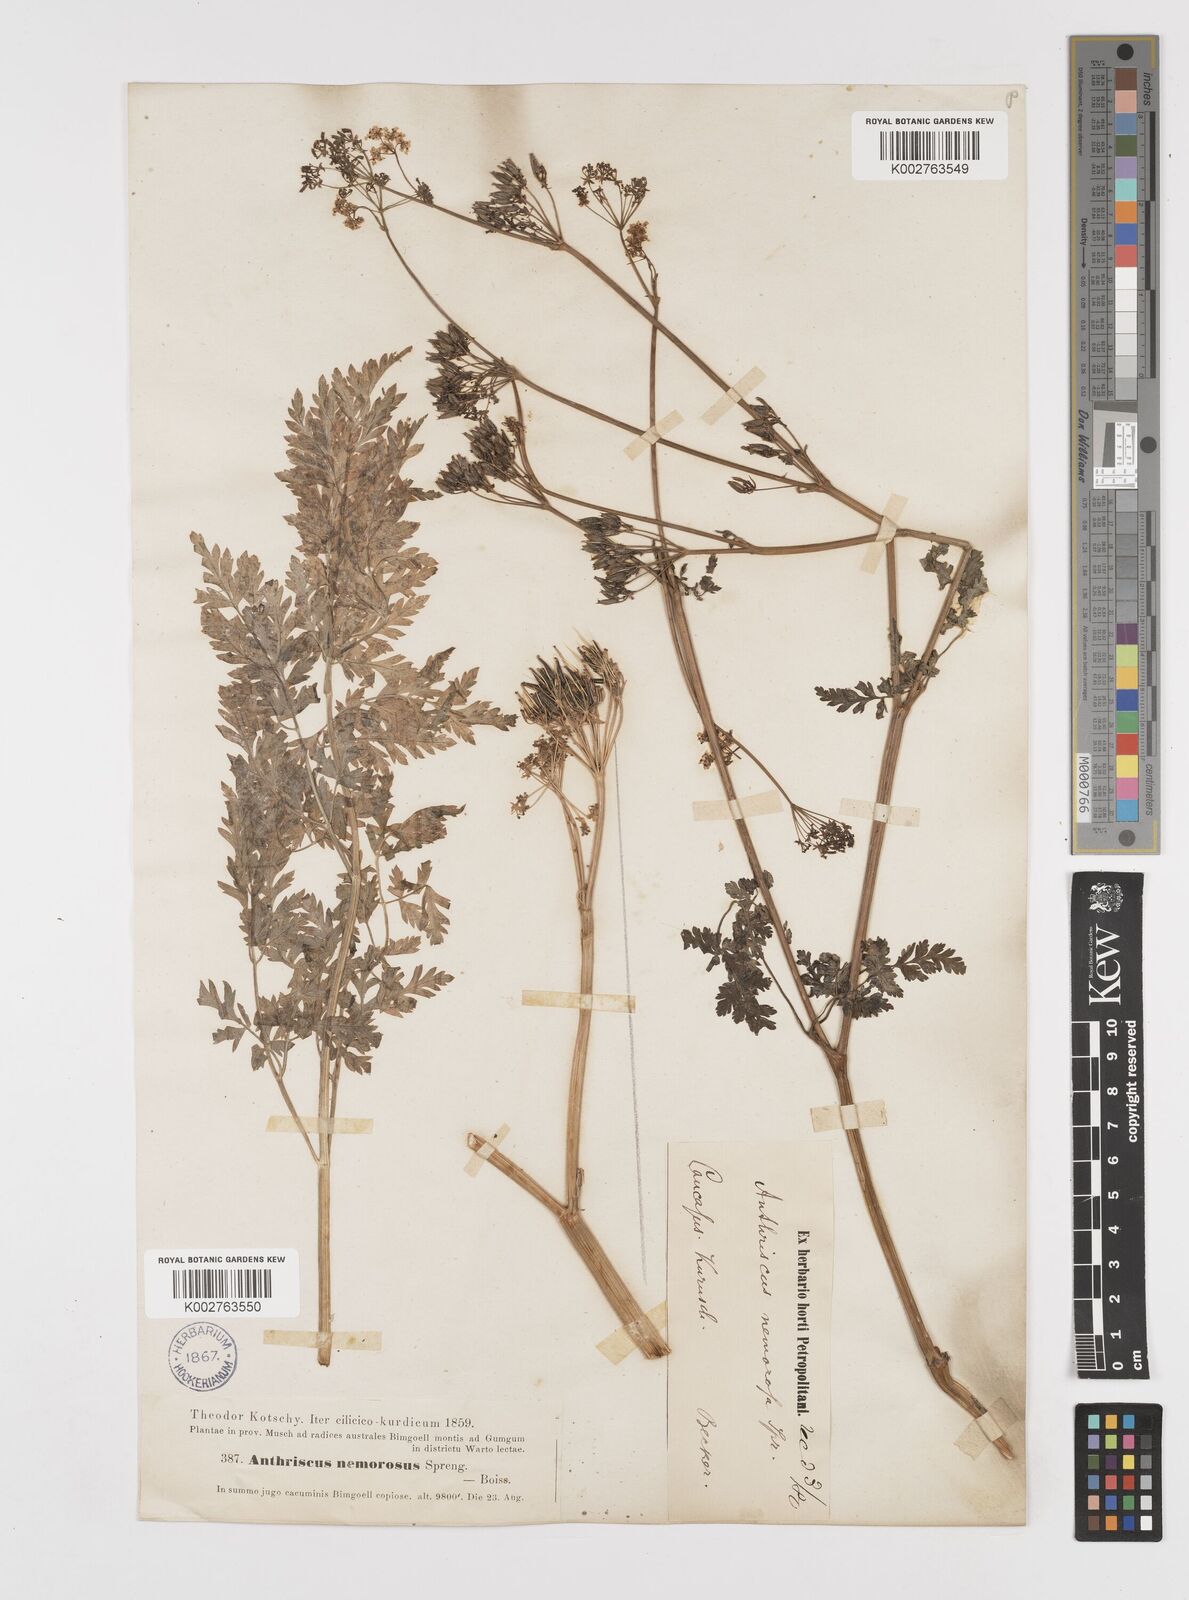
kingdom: Plantae
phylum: Tracheophyta
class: Magnoliopsida
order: Apiales
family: Apiaceae
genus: Anthriscus
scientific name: Anthriscus sylvestris
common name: Cow parsley
